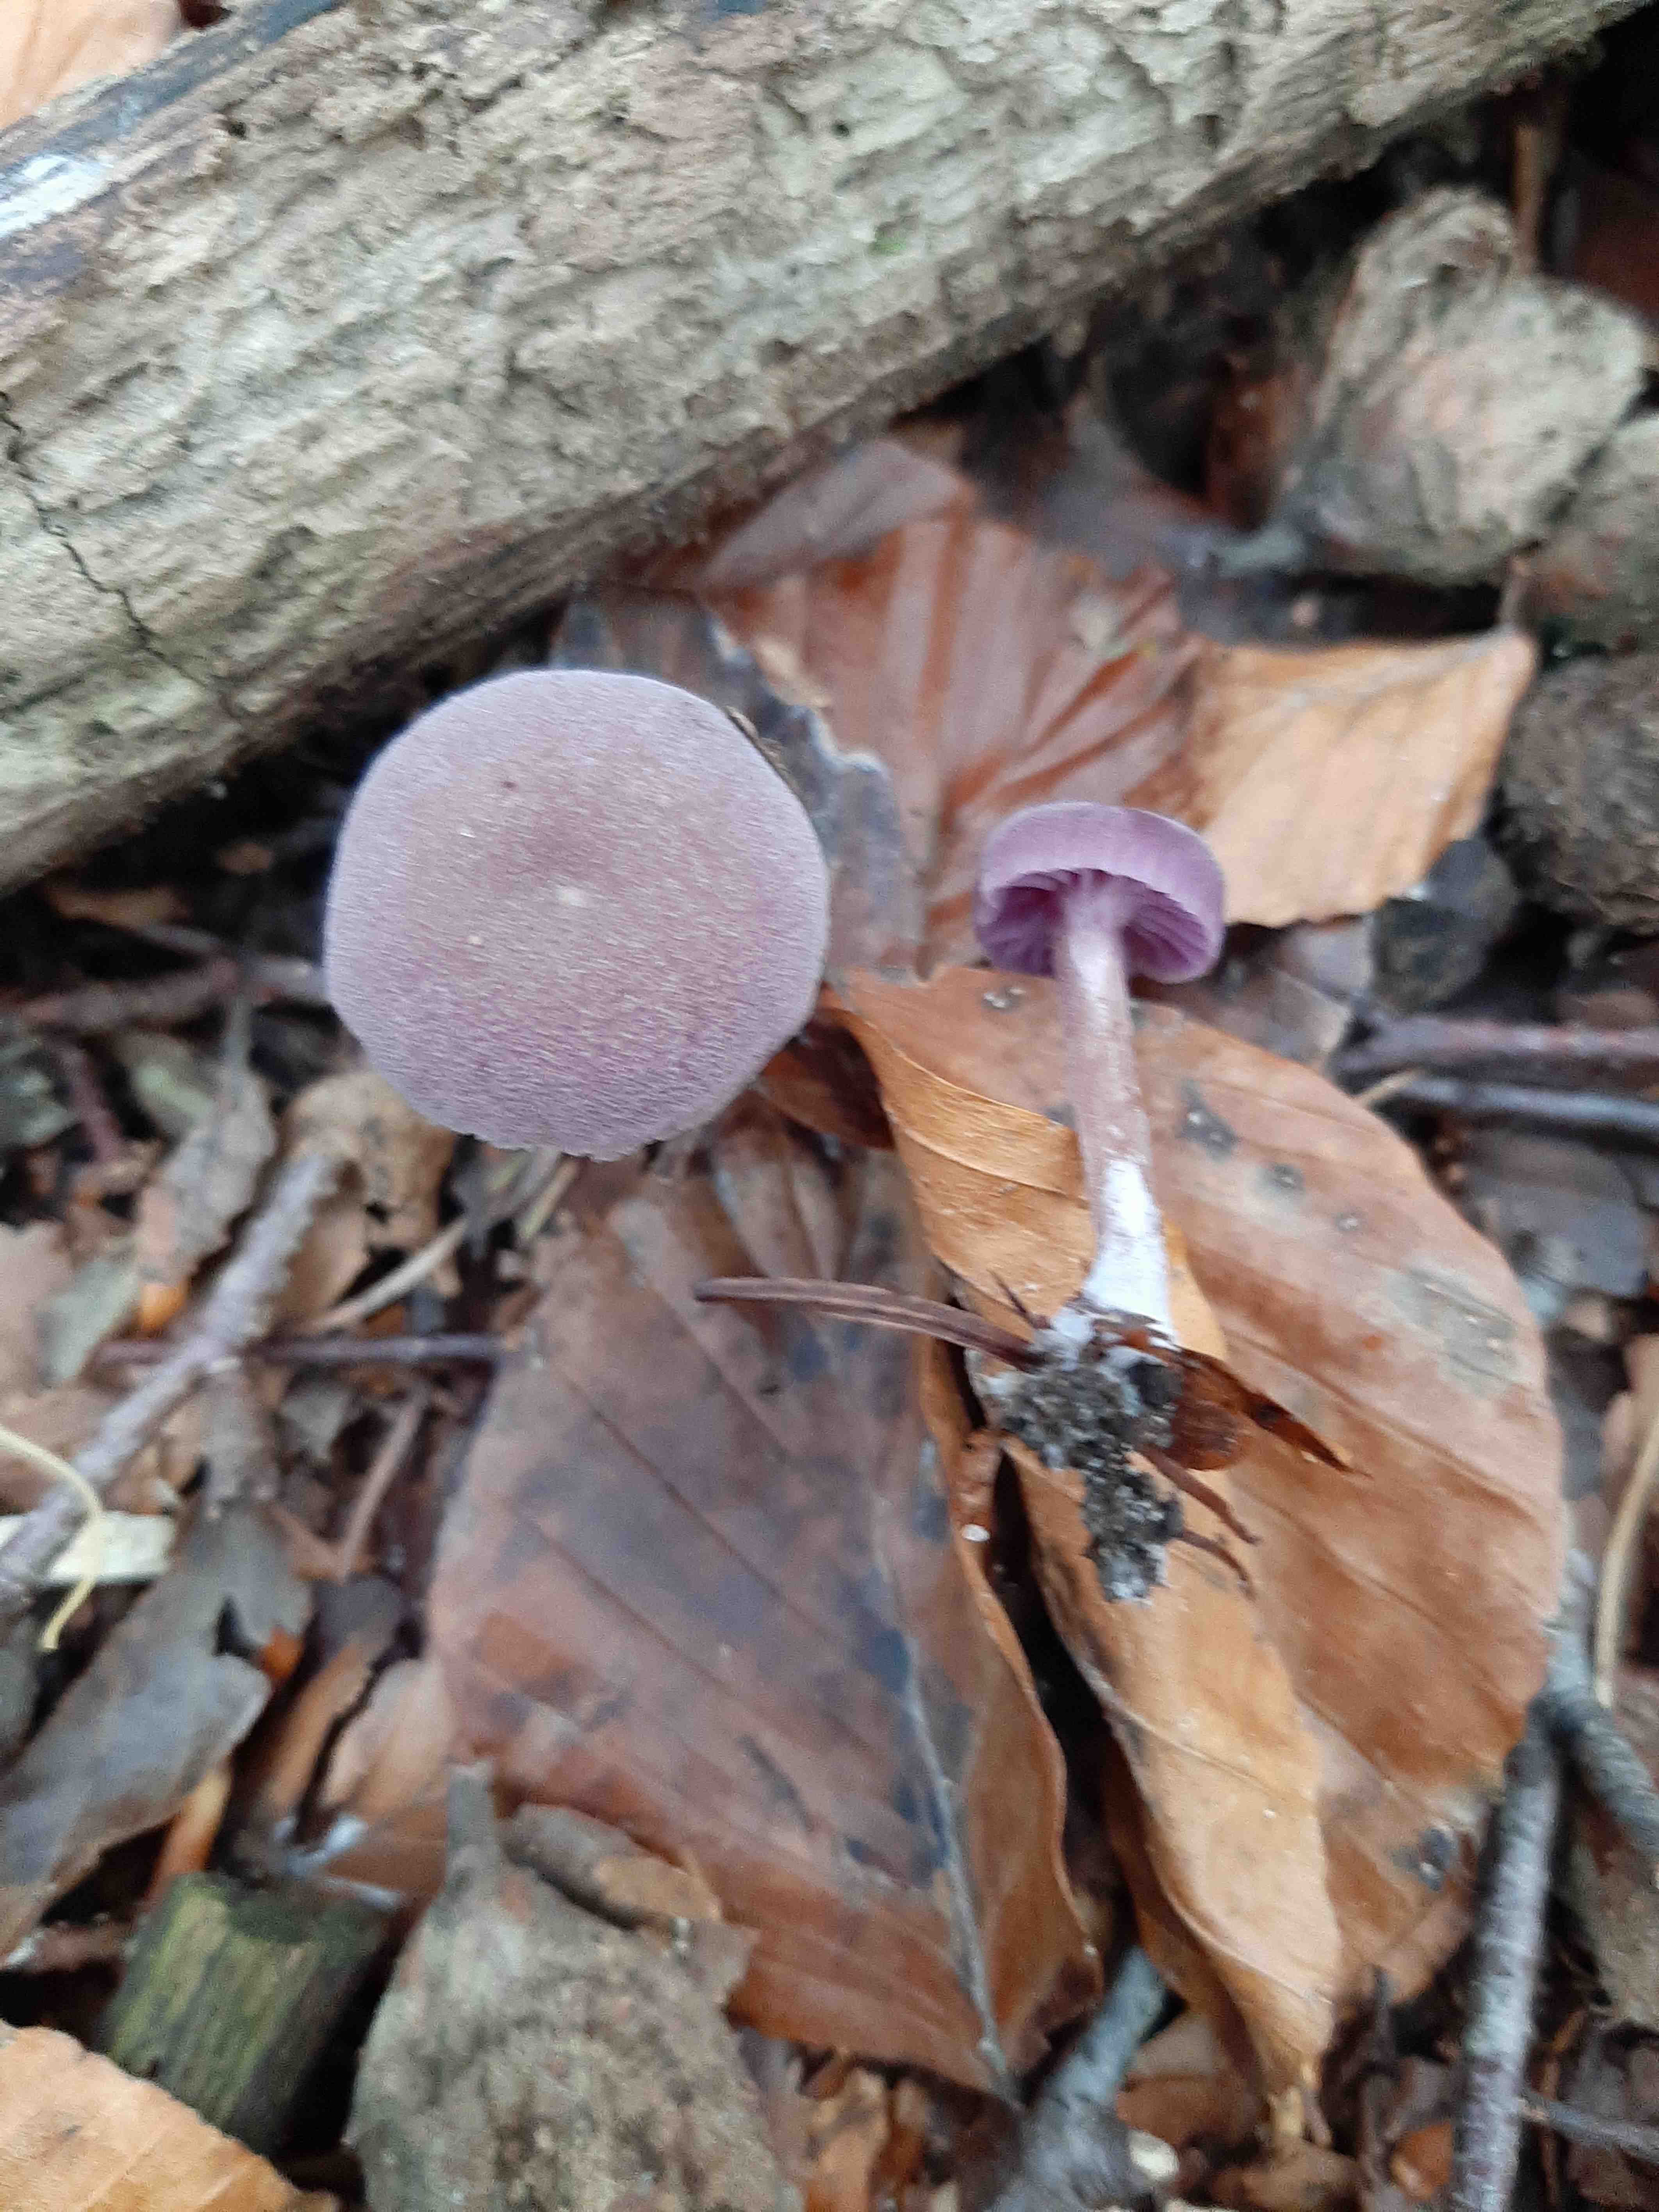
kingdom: Fungi
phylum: Basidiomycota
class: Agaricomycetes
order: Agaricales
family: Hydnangiaceae
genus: Laccaria
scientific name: Laccaria amethystina
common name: violet ametysthat
